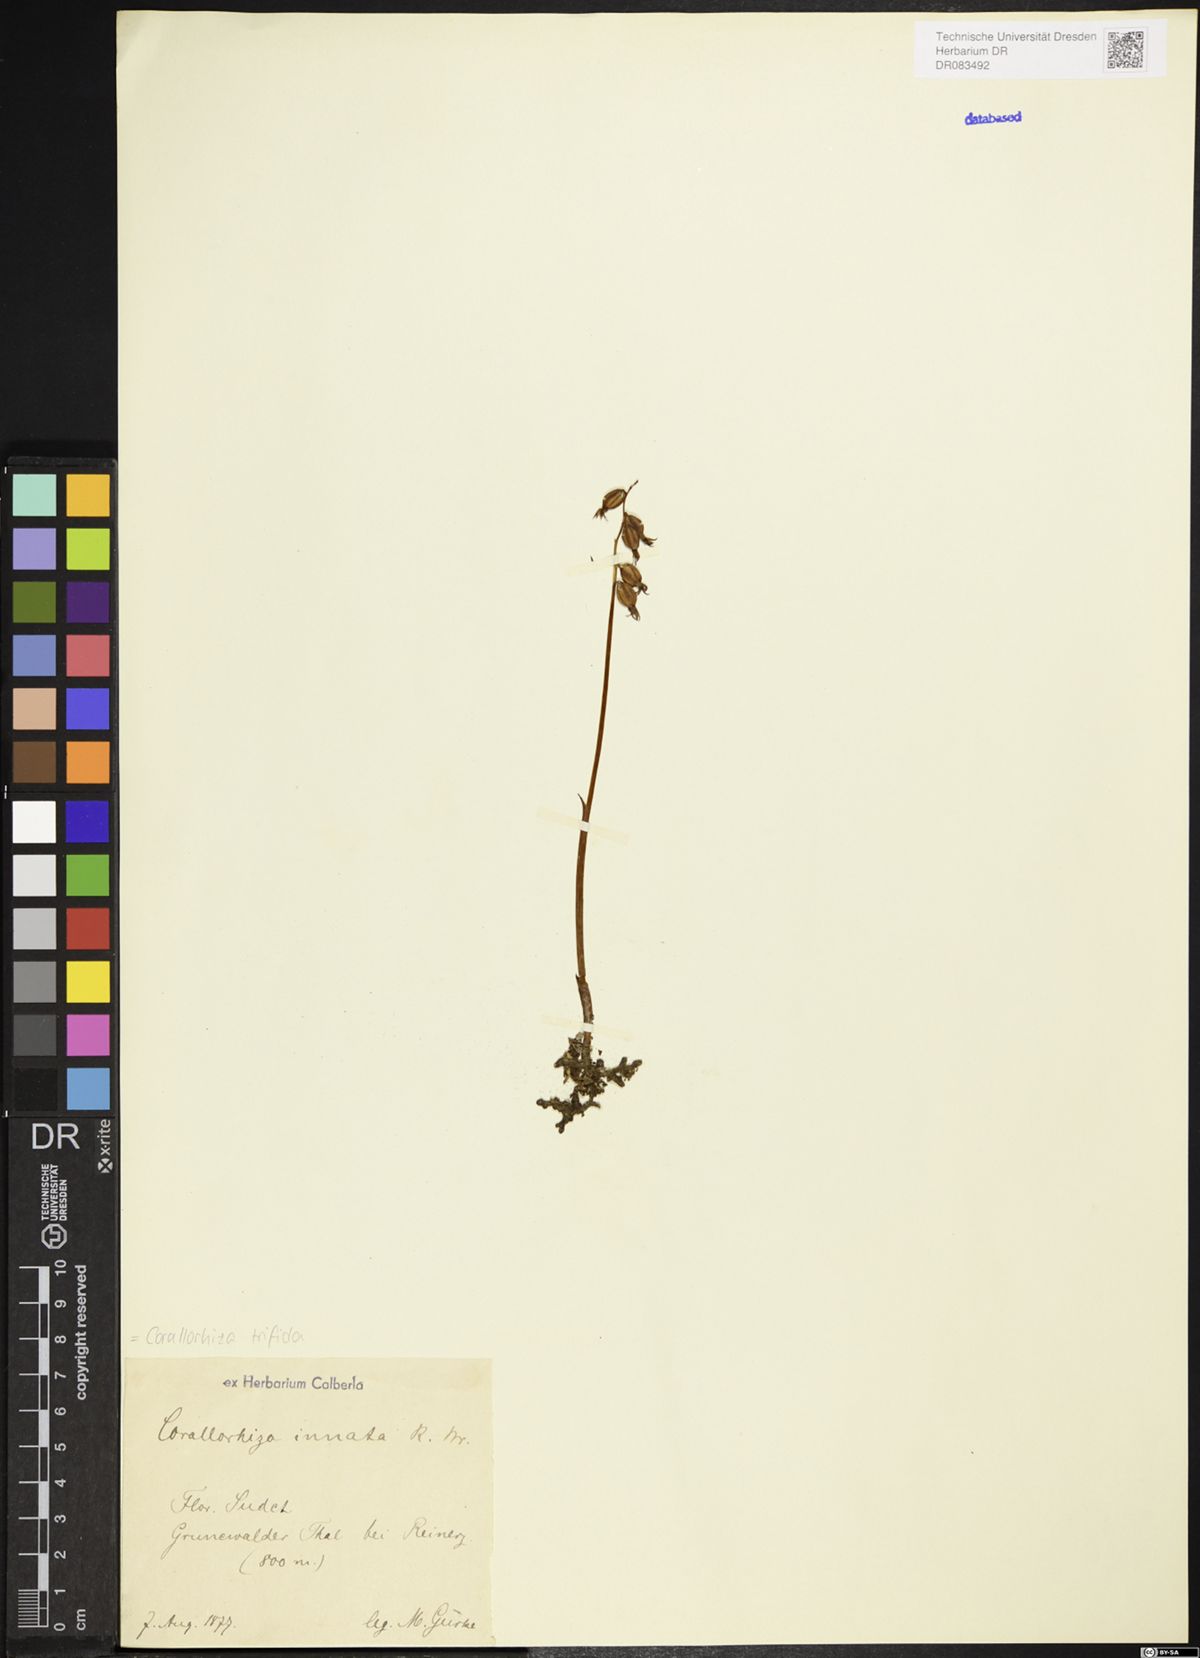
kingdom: Plantae
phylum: Tracheophyta
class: Liliopsida
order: Asparagales
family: Orchidaceae
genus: Corallorhiza
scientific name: Corallorhiza trifida
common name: Yellow coralroot
